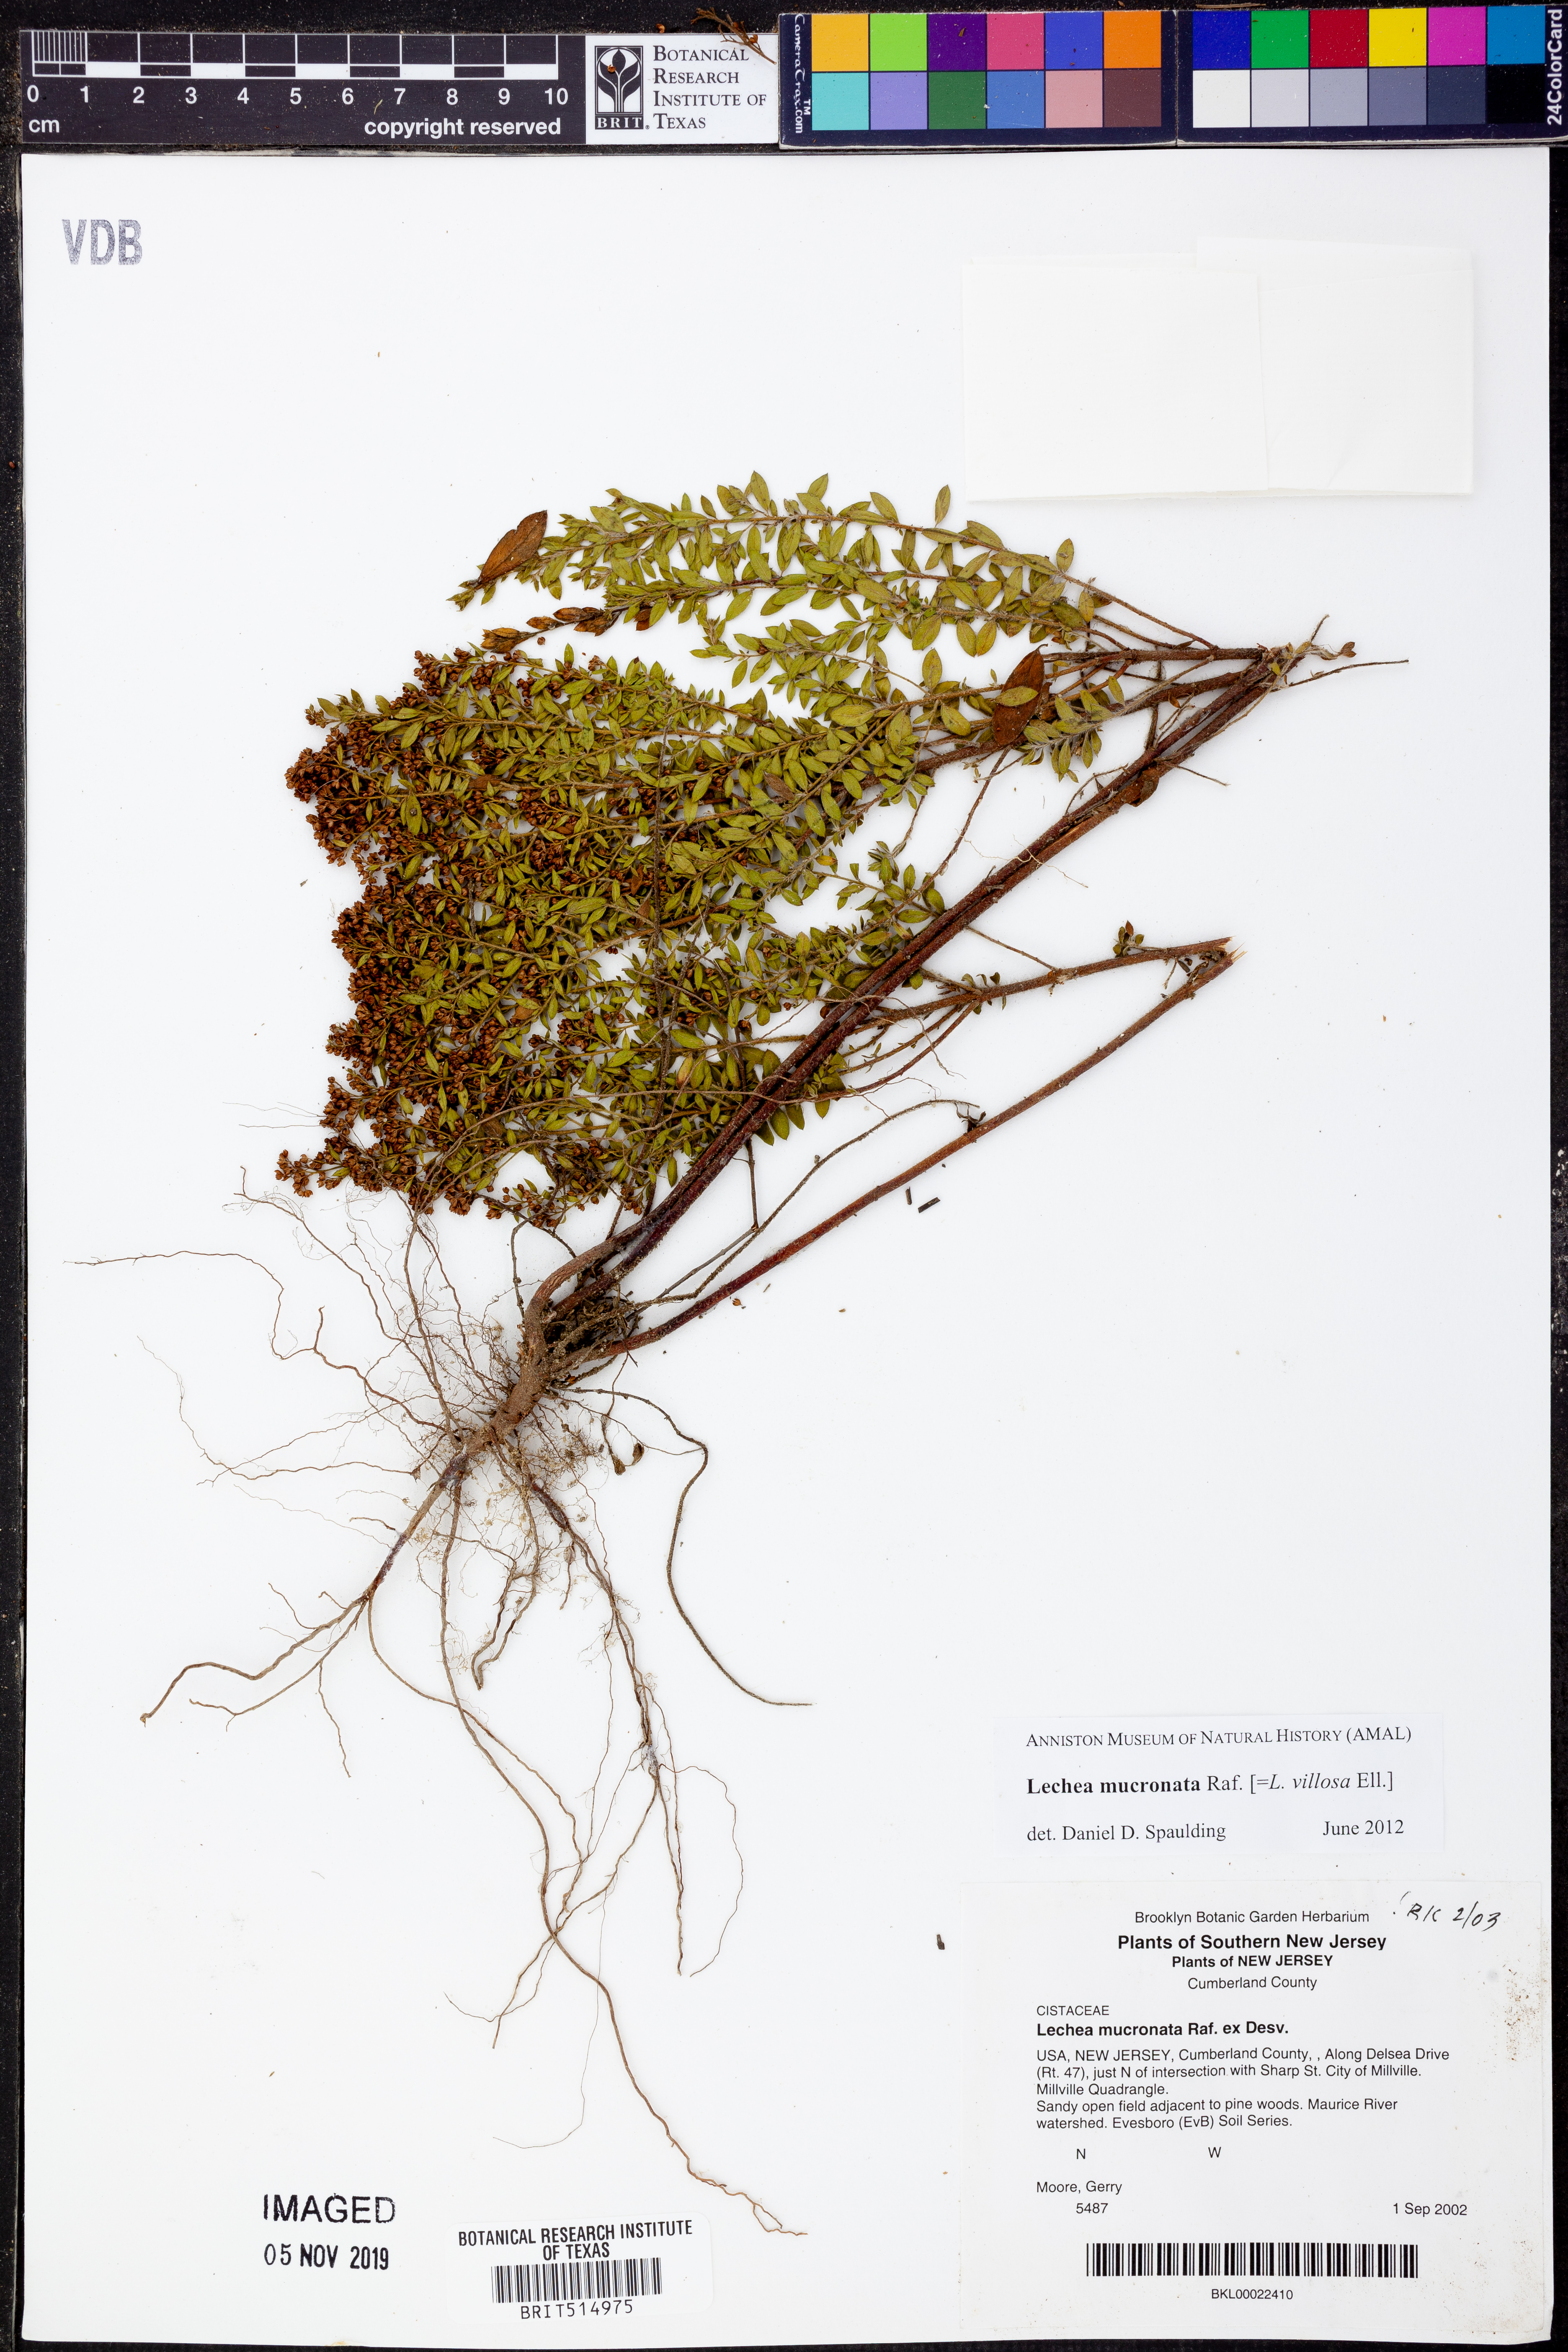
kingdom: Plantae
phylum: Tracheophyta
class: Magnoliopsida
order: Malvales
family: Cistaceae
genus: Lechea
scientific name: Lechea mucronata
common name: Hairy pinweed
